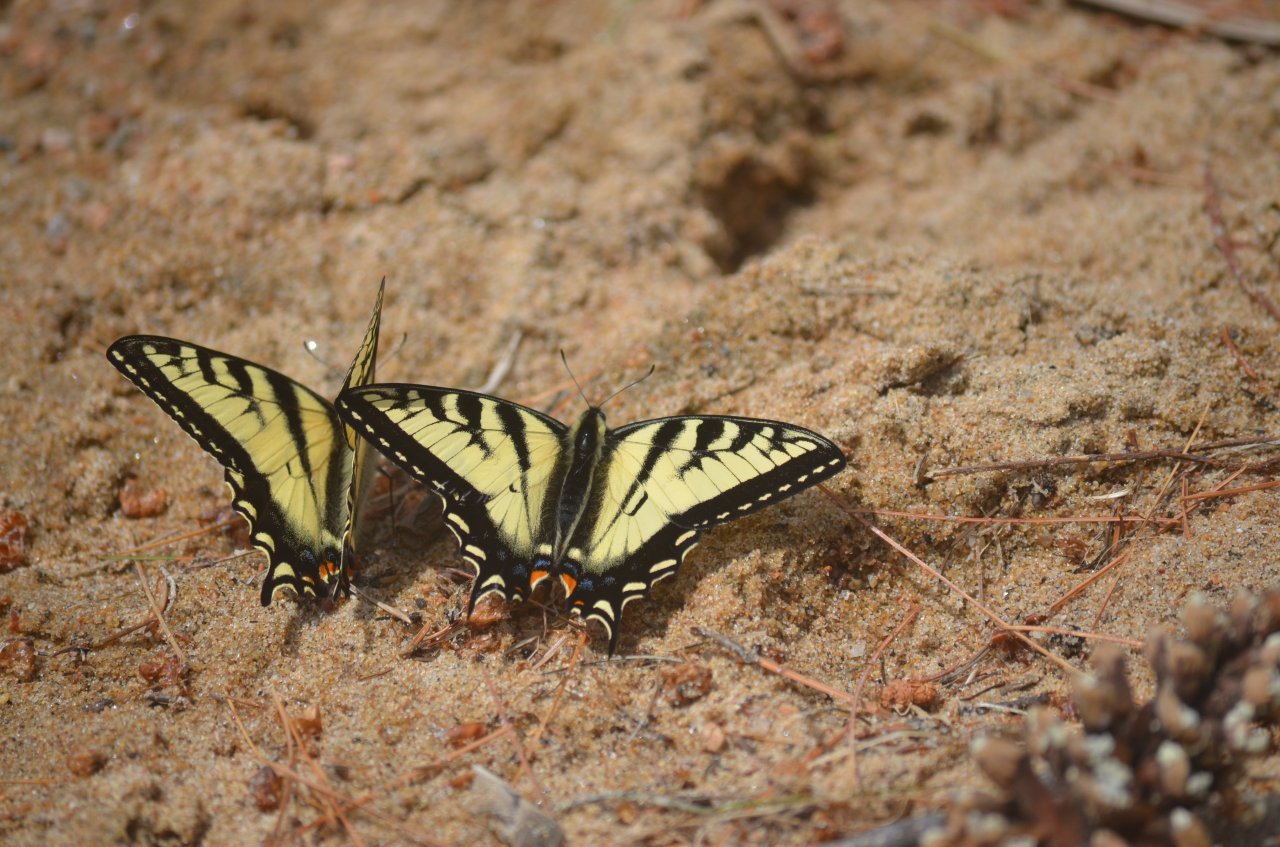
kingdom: Animalia
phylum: Arthropoda
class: Insecta
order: Lepidoptera
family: Papilionidae
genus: Pterourus
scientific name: Pterourus canadensis
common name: Canadian Tiger Swallowtail
